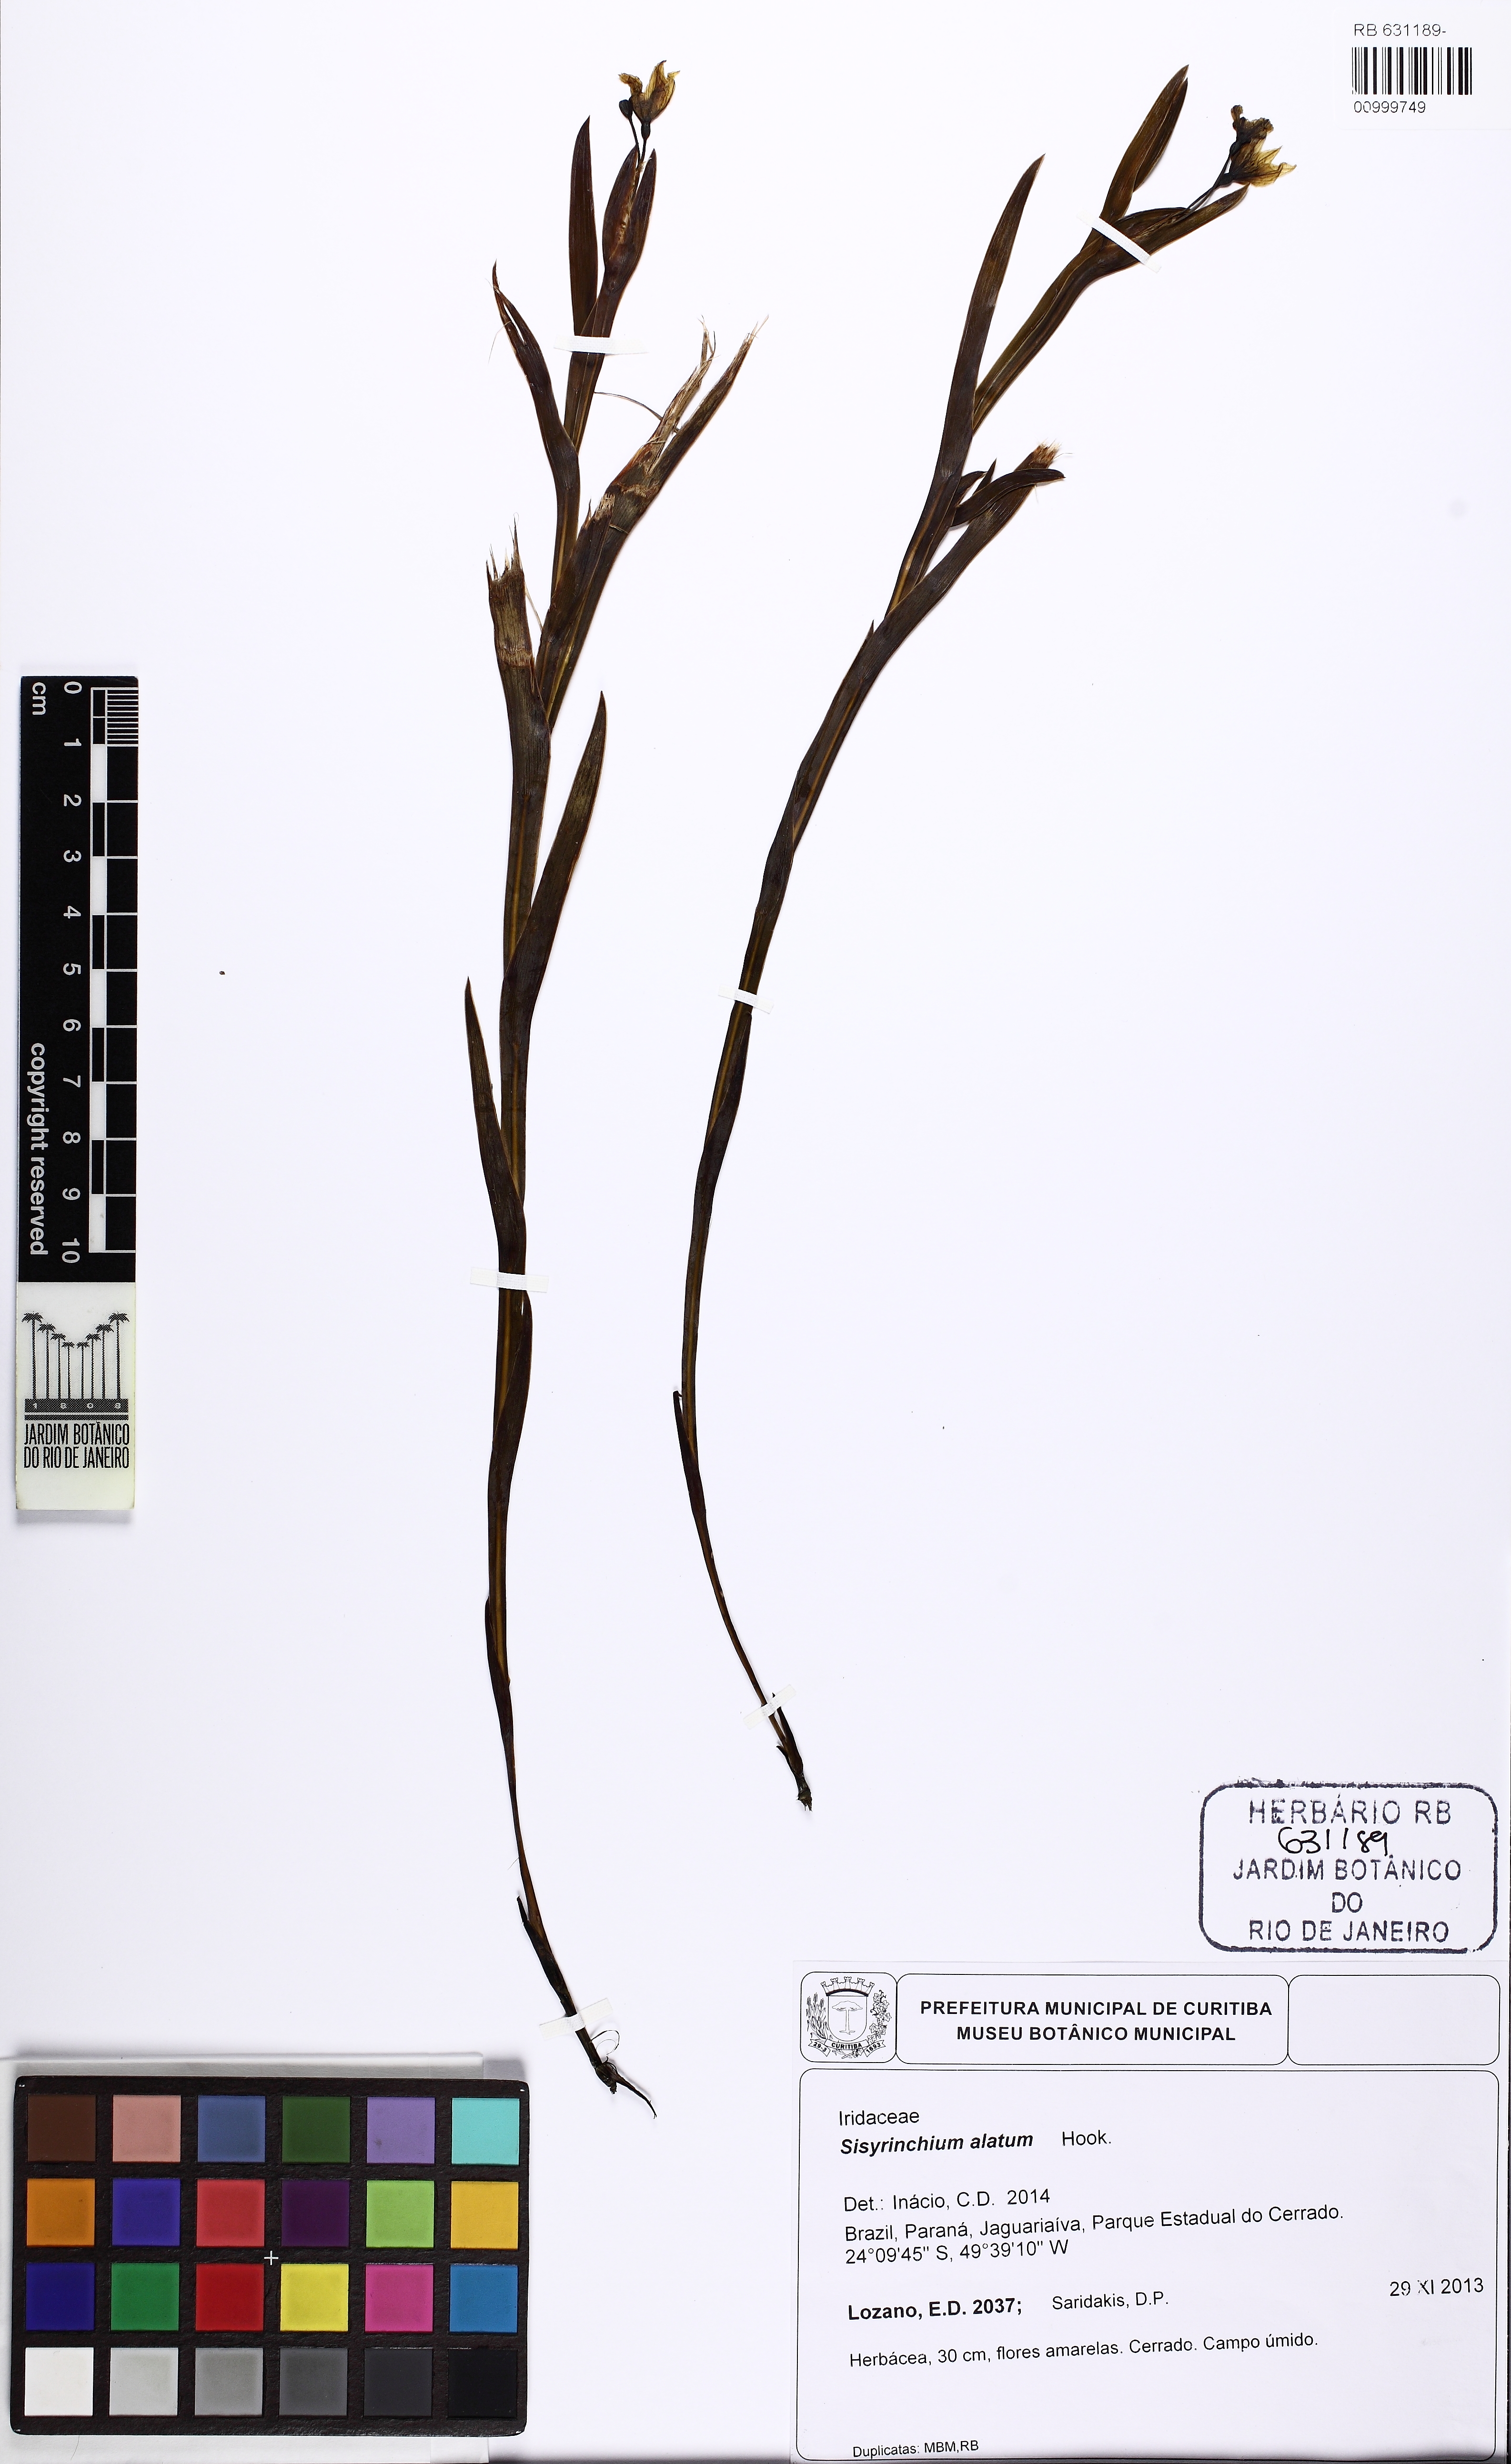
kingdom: Plantae
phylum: Tracheophyta
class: Liliopsida
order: Asparagales
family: Iridaceae
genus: Sisyrinchium
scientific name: Sisyrinchium vaginatum
